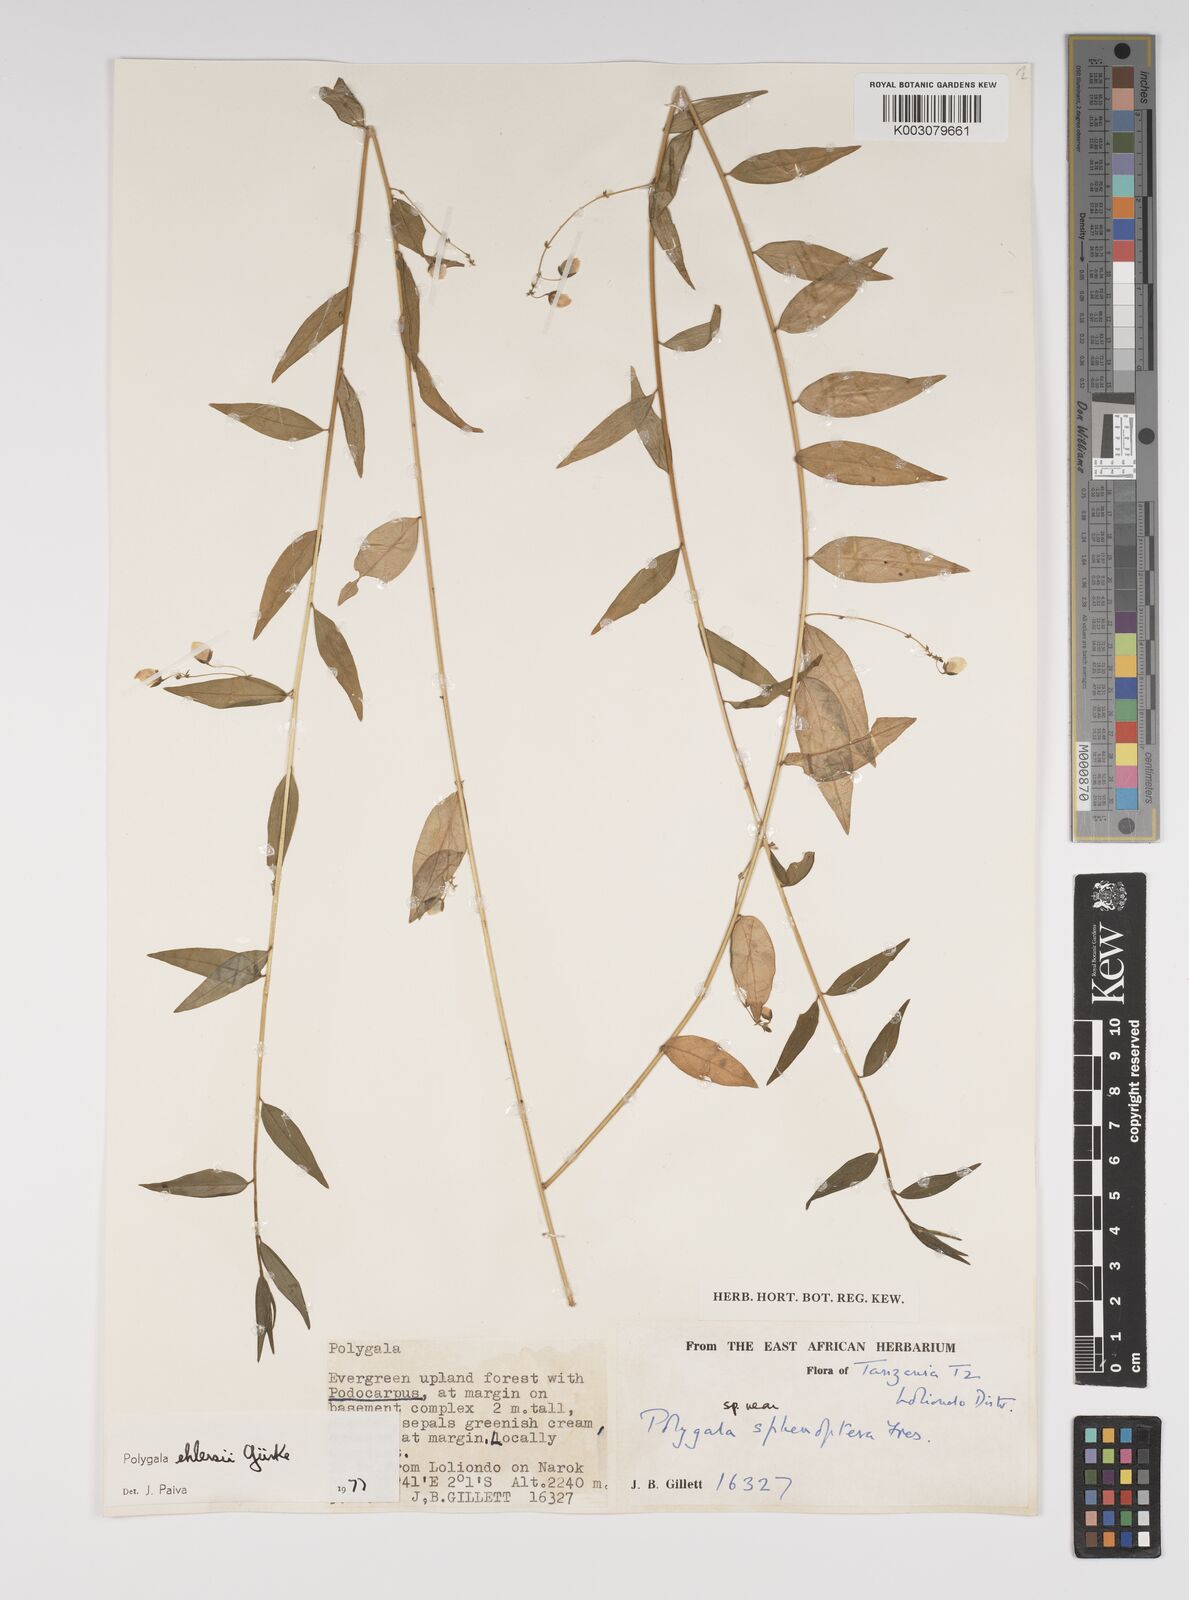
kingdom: Plantae
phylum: Tracheophyta
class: Magnoliopsida
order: Fabales
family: Polygalaceae
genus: Polygala
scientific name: Polygala ehlersii
